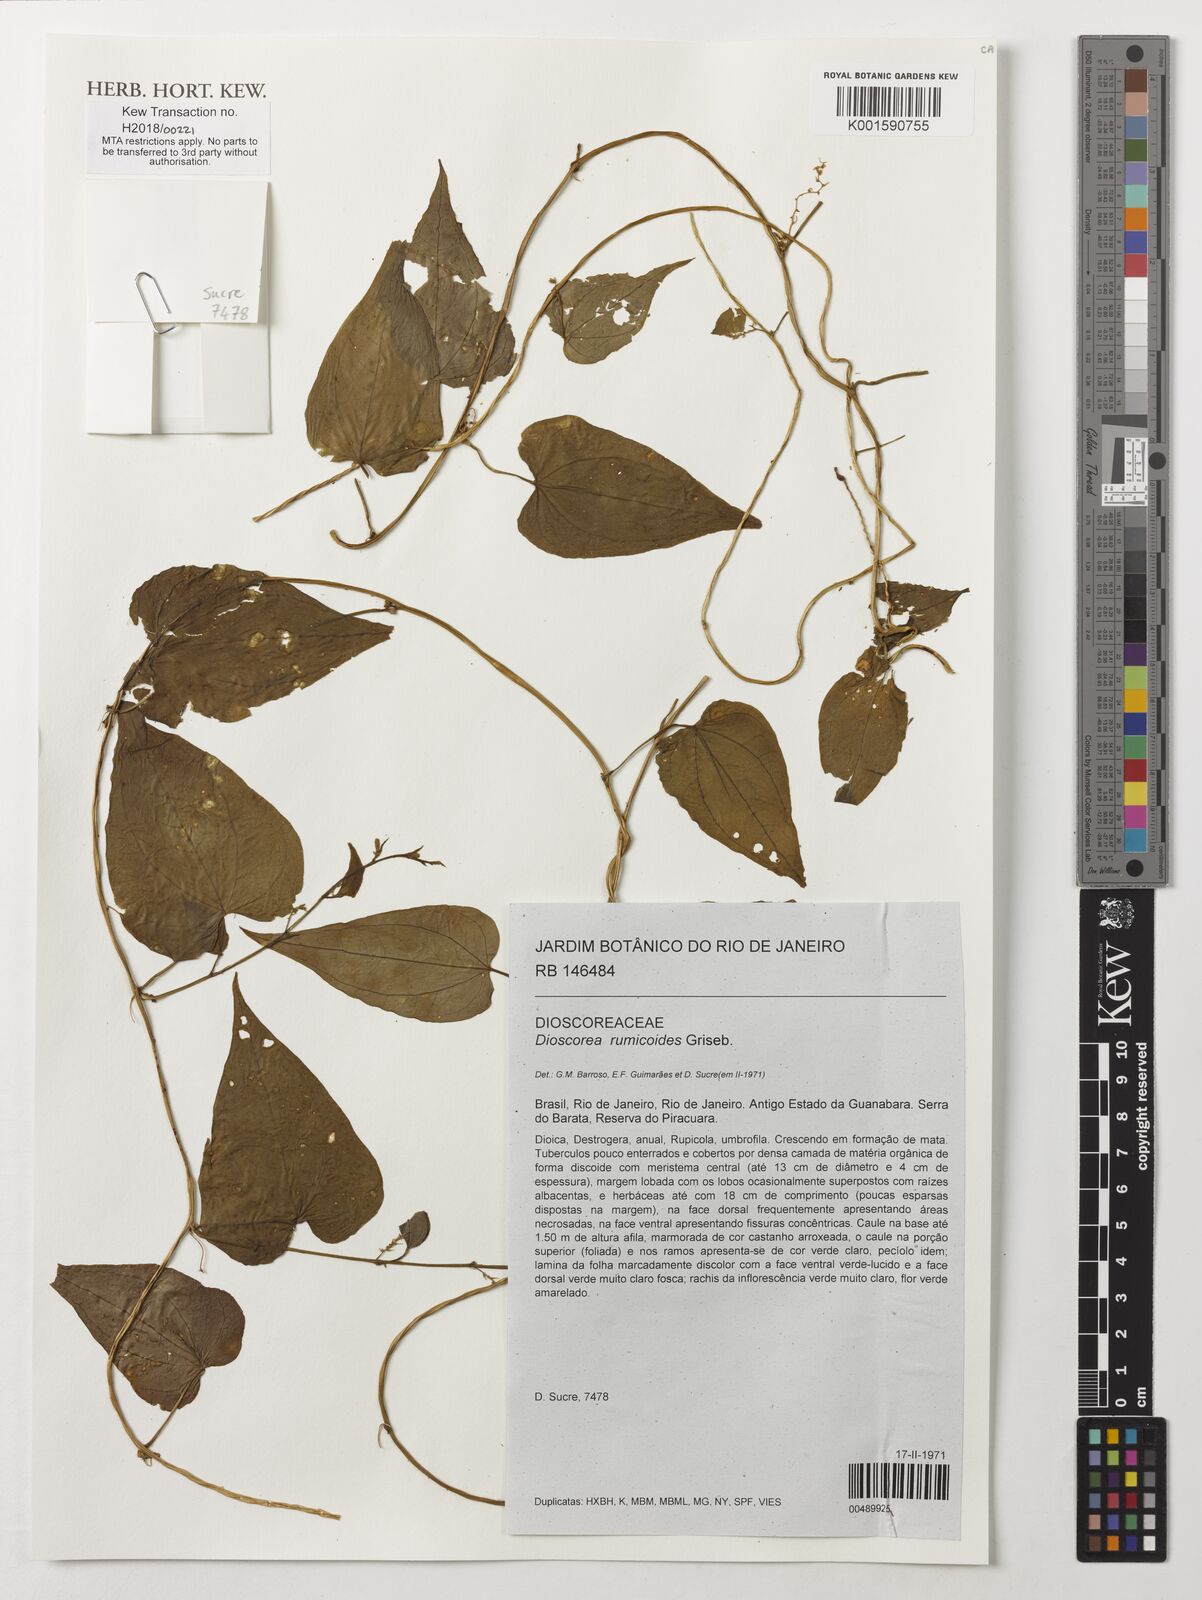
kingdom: Plantae
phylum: Tracheophyta
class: Liliopsida
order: Dioscoreales
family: Dioscoreaceae
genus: Dioscorea
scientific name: Dioscorea rumicoides
